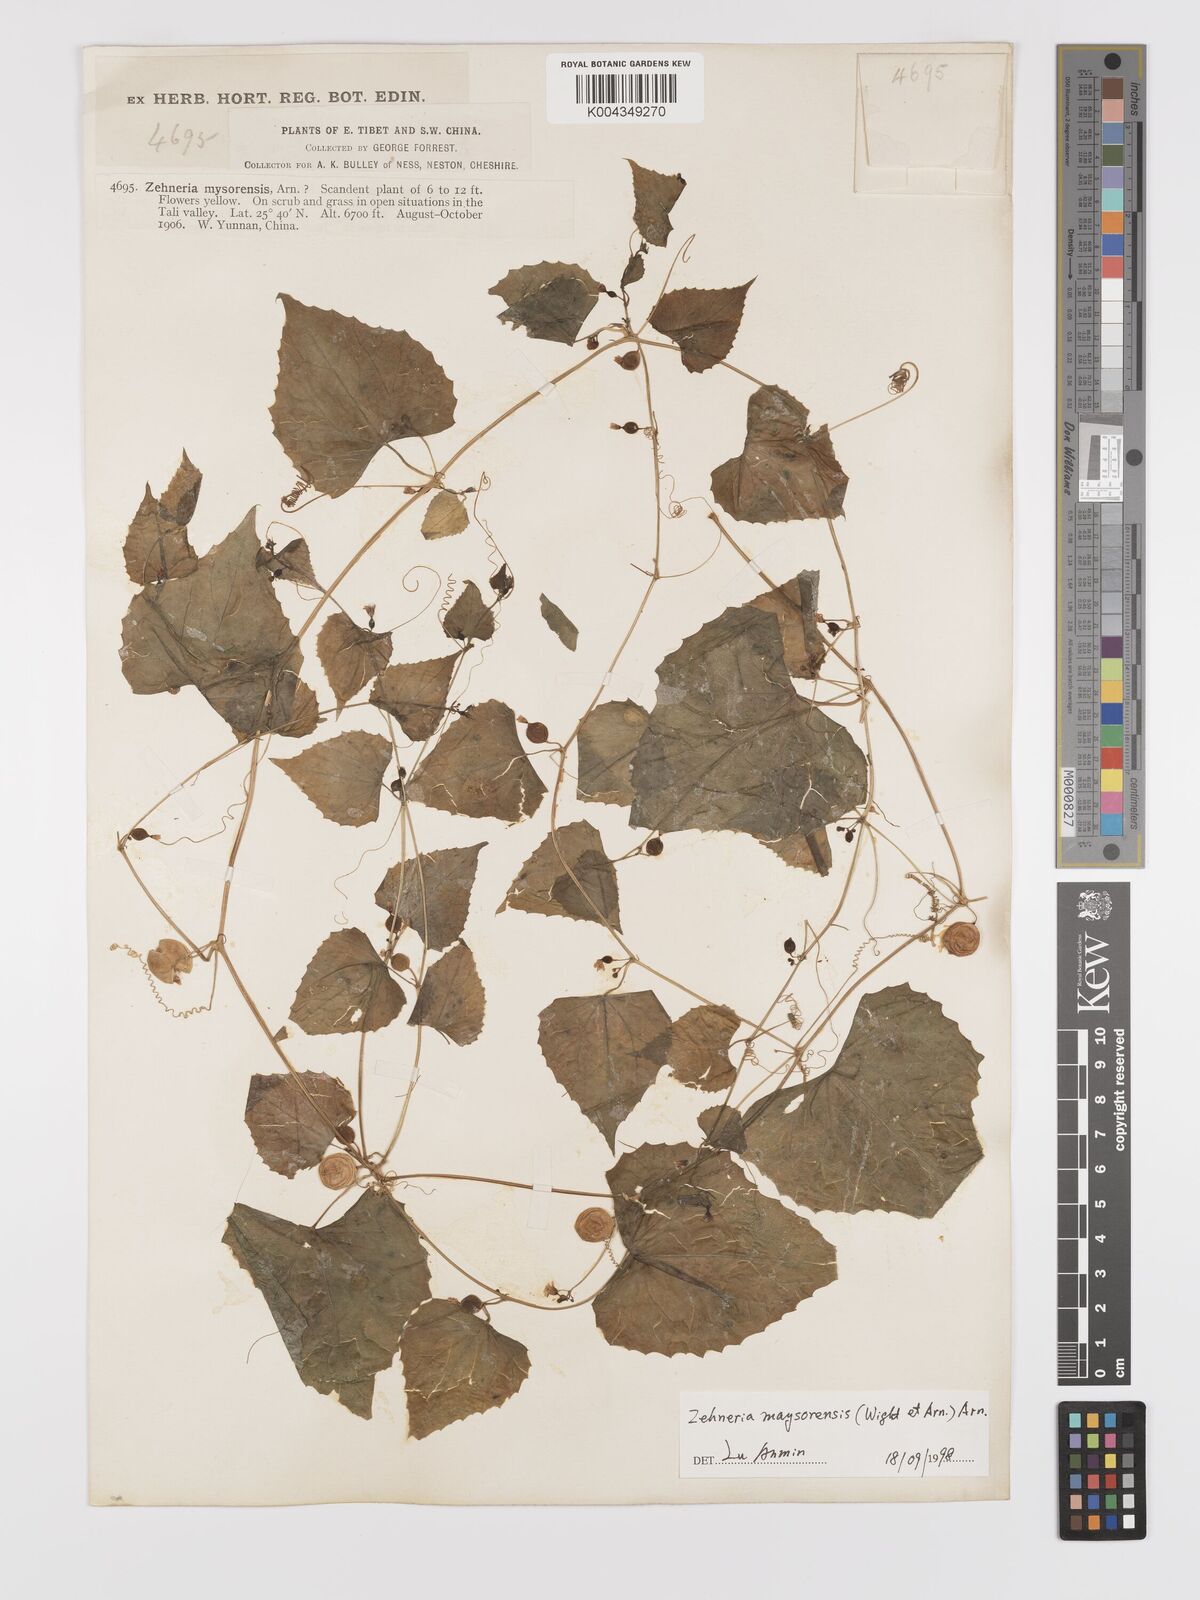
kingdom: Plantae
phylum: Tracheophyta
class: Magnoliopsida
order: Cucurbitales
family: Cucurbitaceae
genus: Zehneria
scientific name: Zehneria maysorensis
